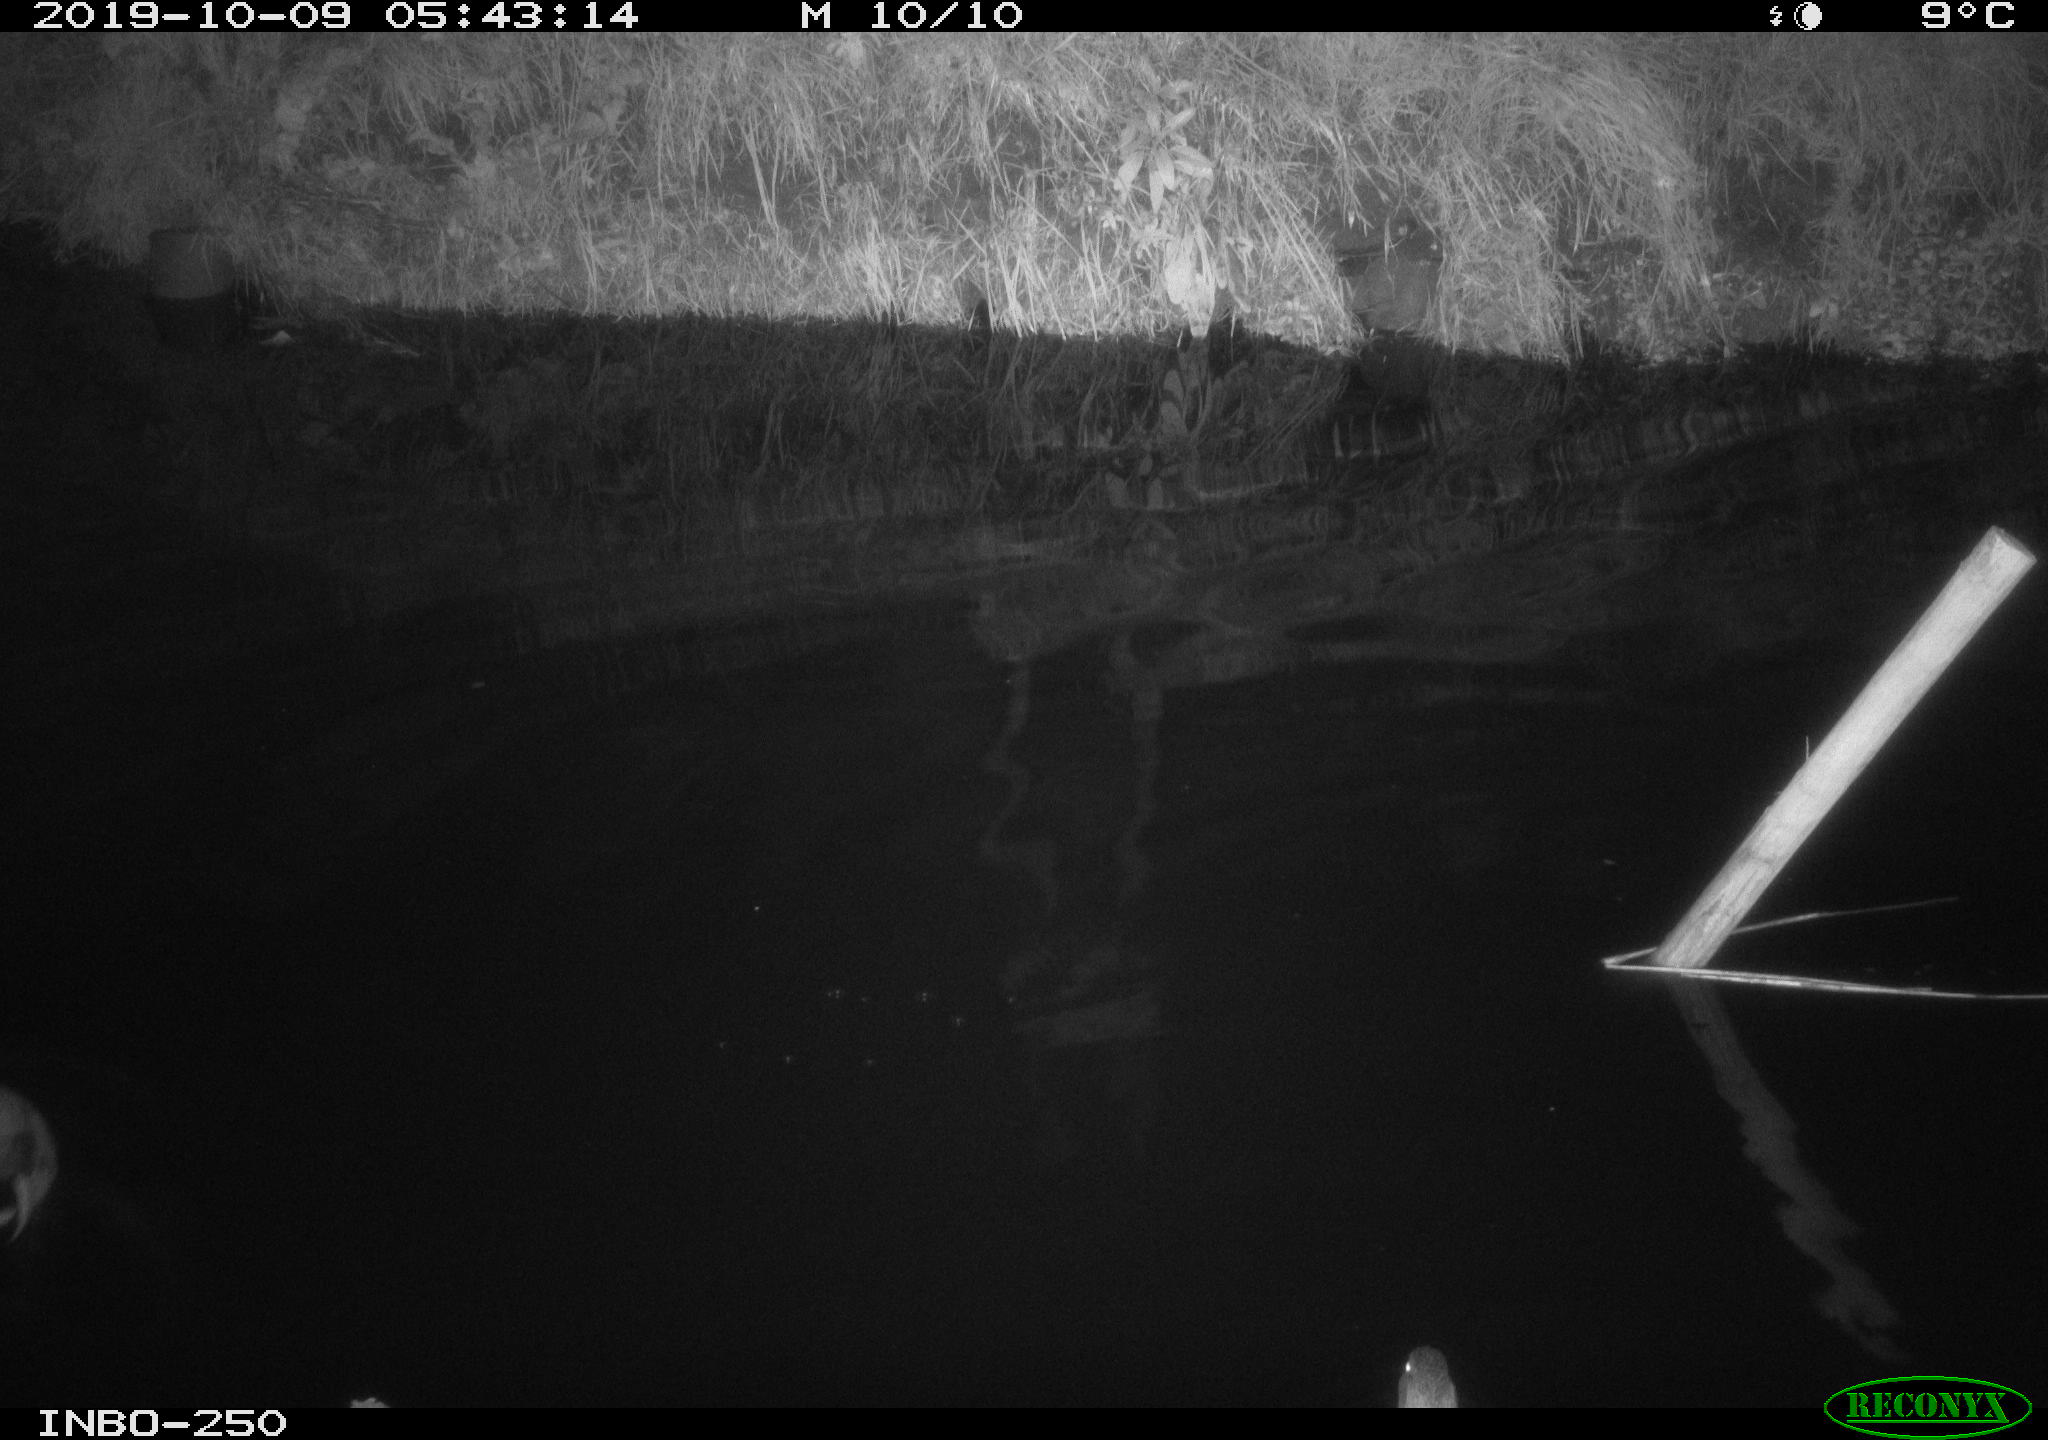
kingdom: Animalia
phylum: Chordata
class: Aves
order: Anseriformes
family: Anatidae
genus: Anas
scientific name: Anas platyrhynchos
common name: Mallard
